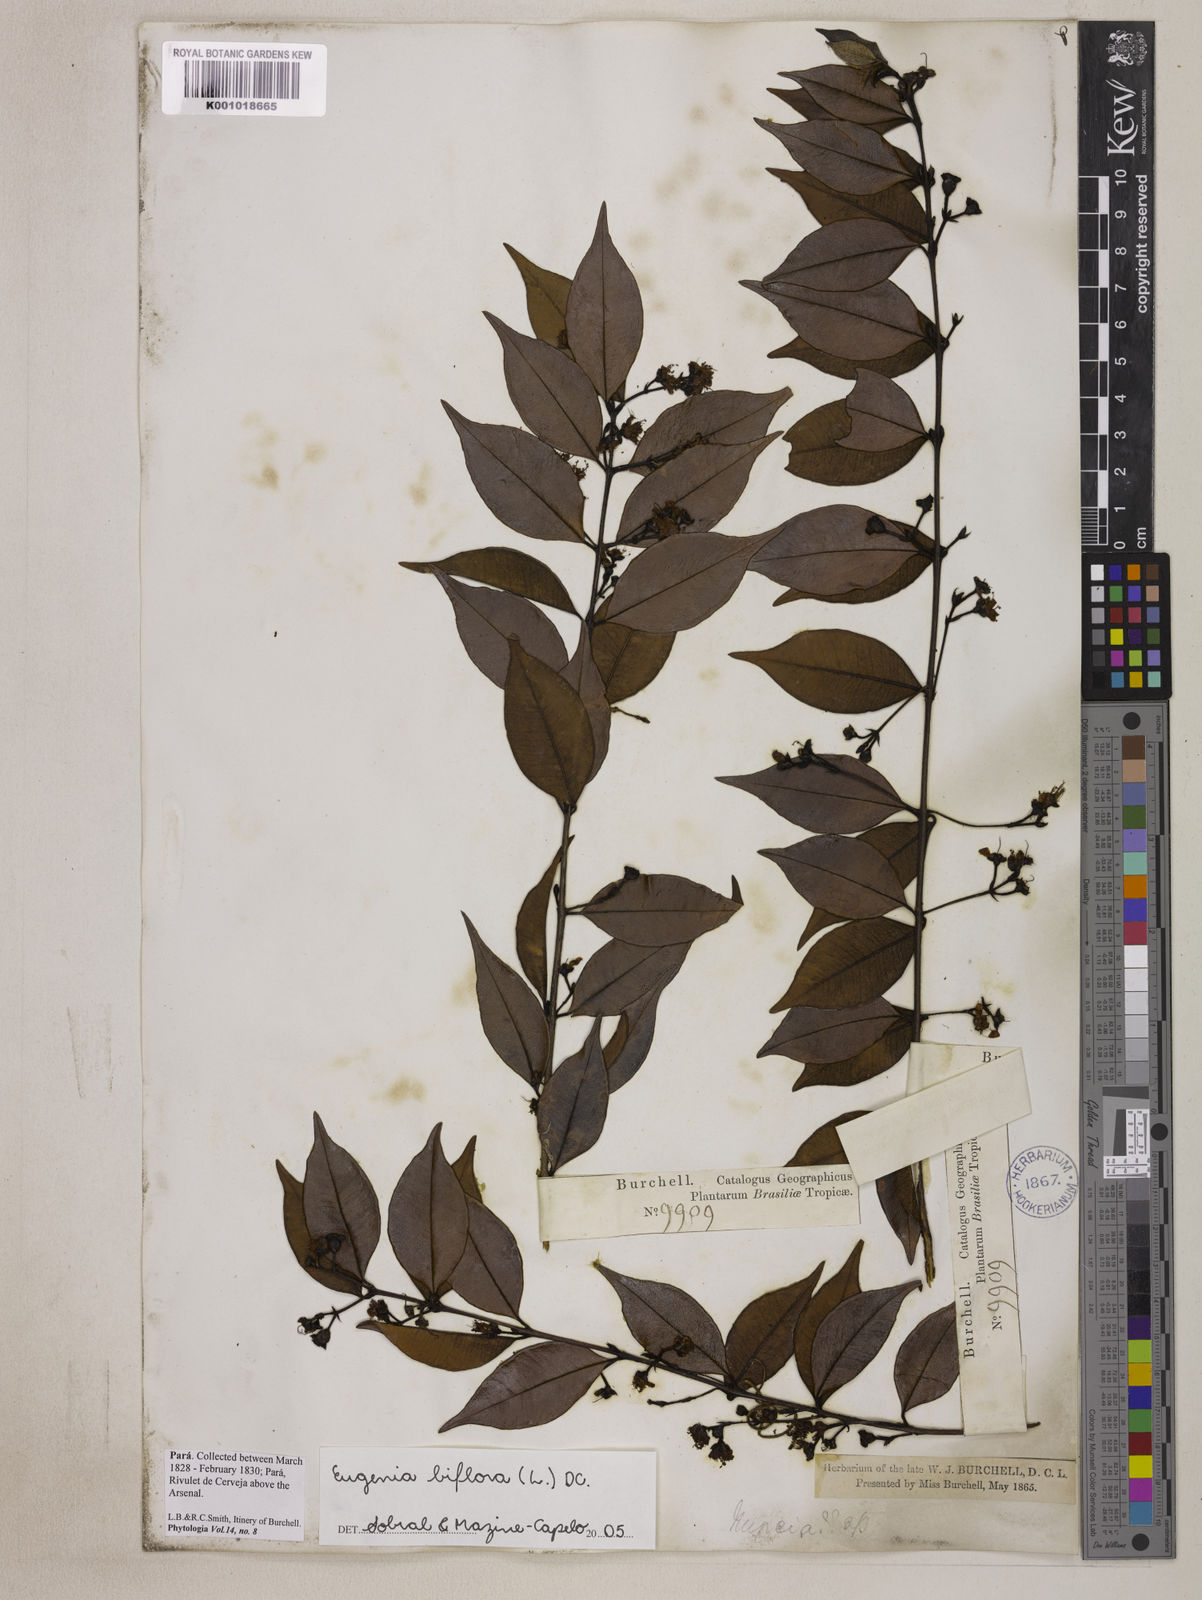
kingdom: Plantae
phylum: Tracheophyta
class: Magnoliopsida
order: Myrtales
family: Myrtaceae
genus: Eugenia
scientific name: Eugenia biflora
